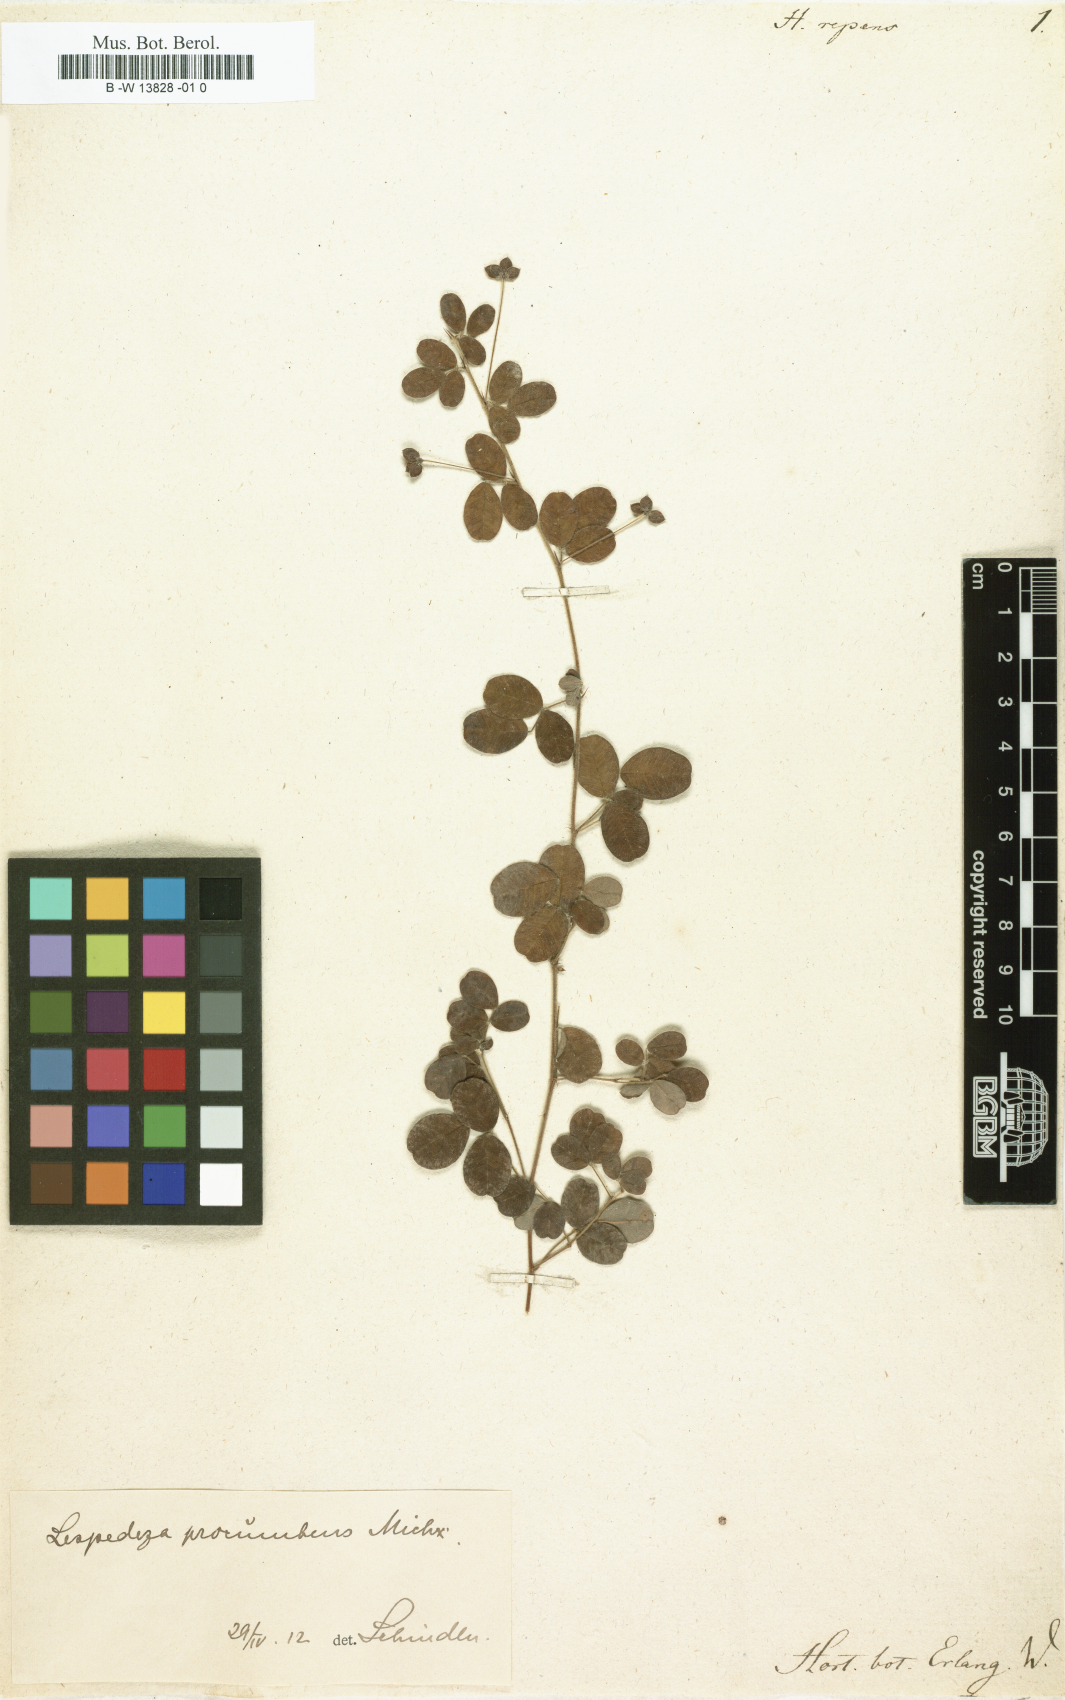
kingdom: Plantae
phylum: Tracheophyta
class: Magnoliopsida
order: Fabales
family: Fabaceae
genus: Lespedeza
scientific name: Lespedeza repens
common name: Creeping bush-clover
